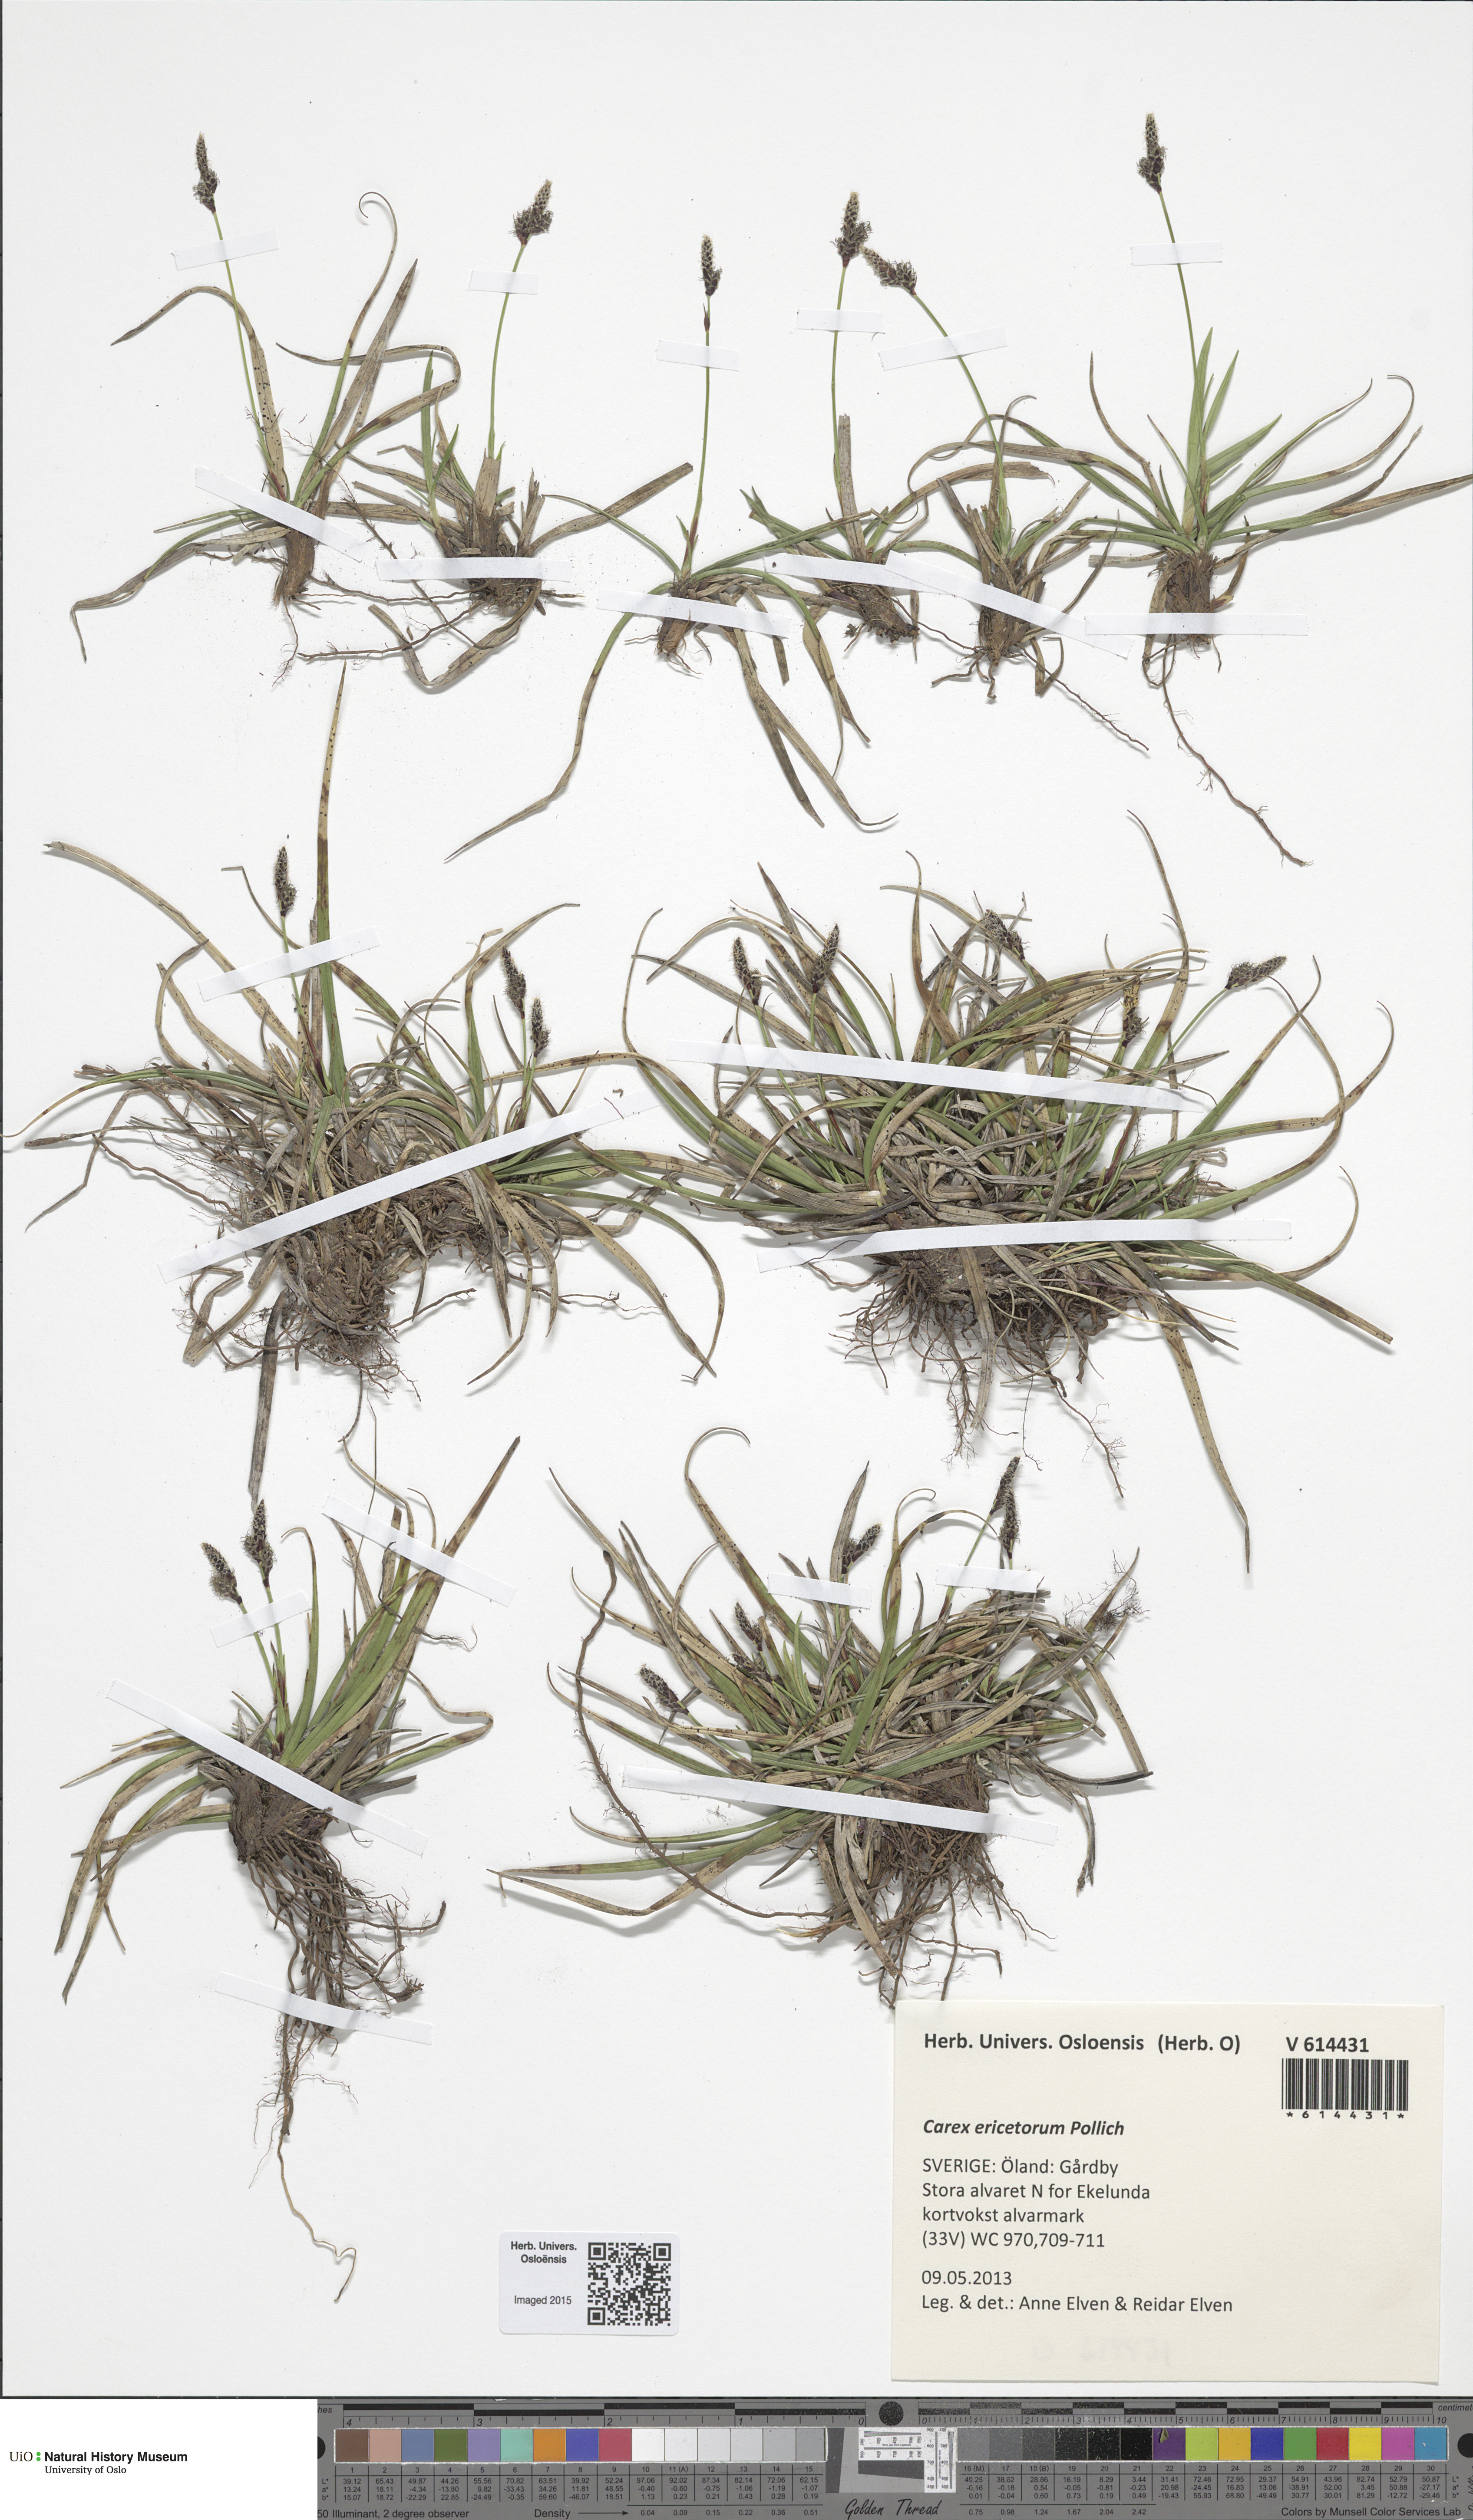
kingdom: Plantae
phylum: Tracheophyta
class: Liliopsida
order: Poales
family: Cyperaceae
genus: Carex
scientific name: Carex ericetorum
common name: Rare spring-sedge
